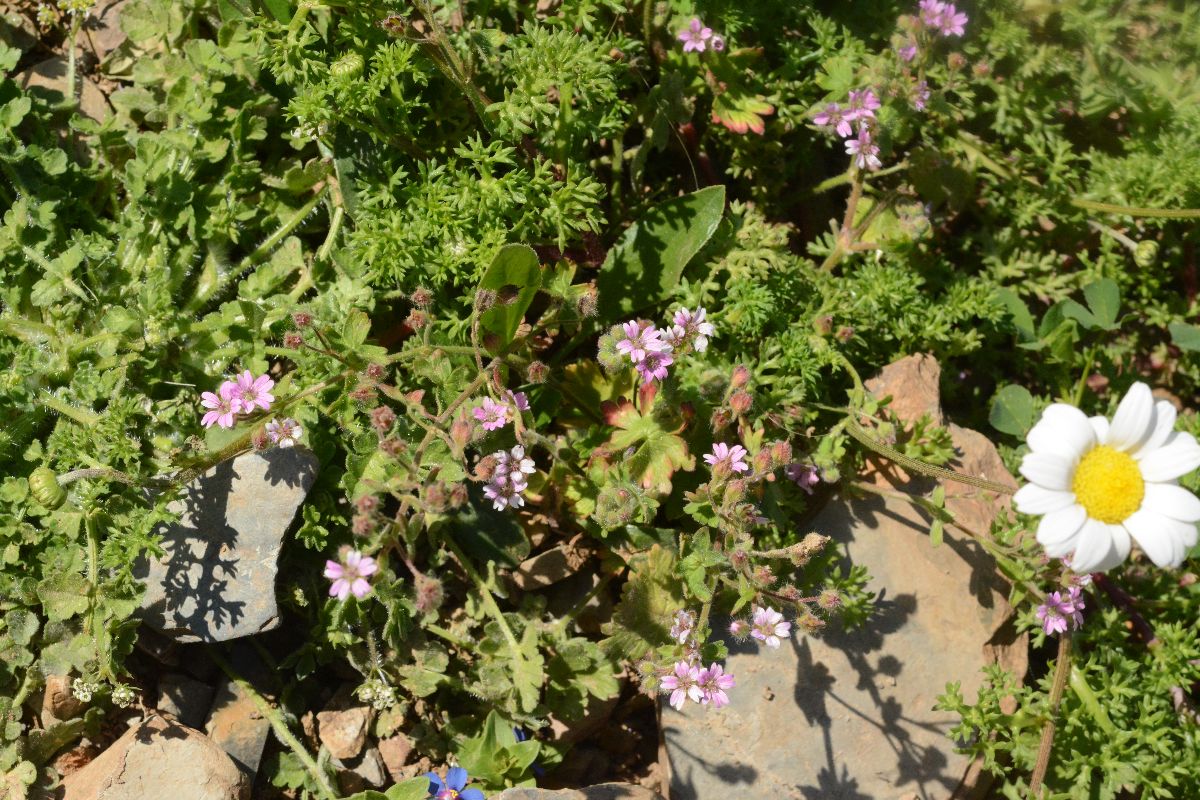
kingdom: Plantae
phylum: Tracheophyta
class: Magnoliopsida
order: Geraniales
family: Geraniaceae
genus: Geranium
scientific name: Geranium molle
